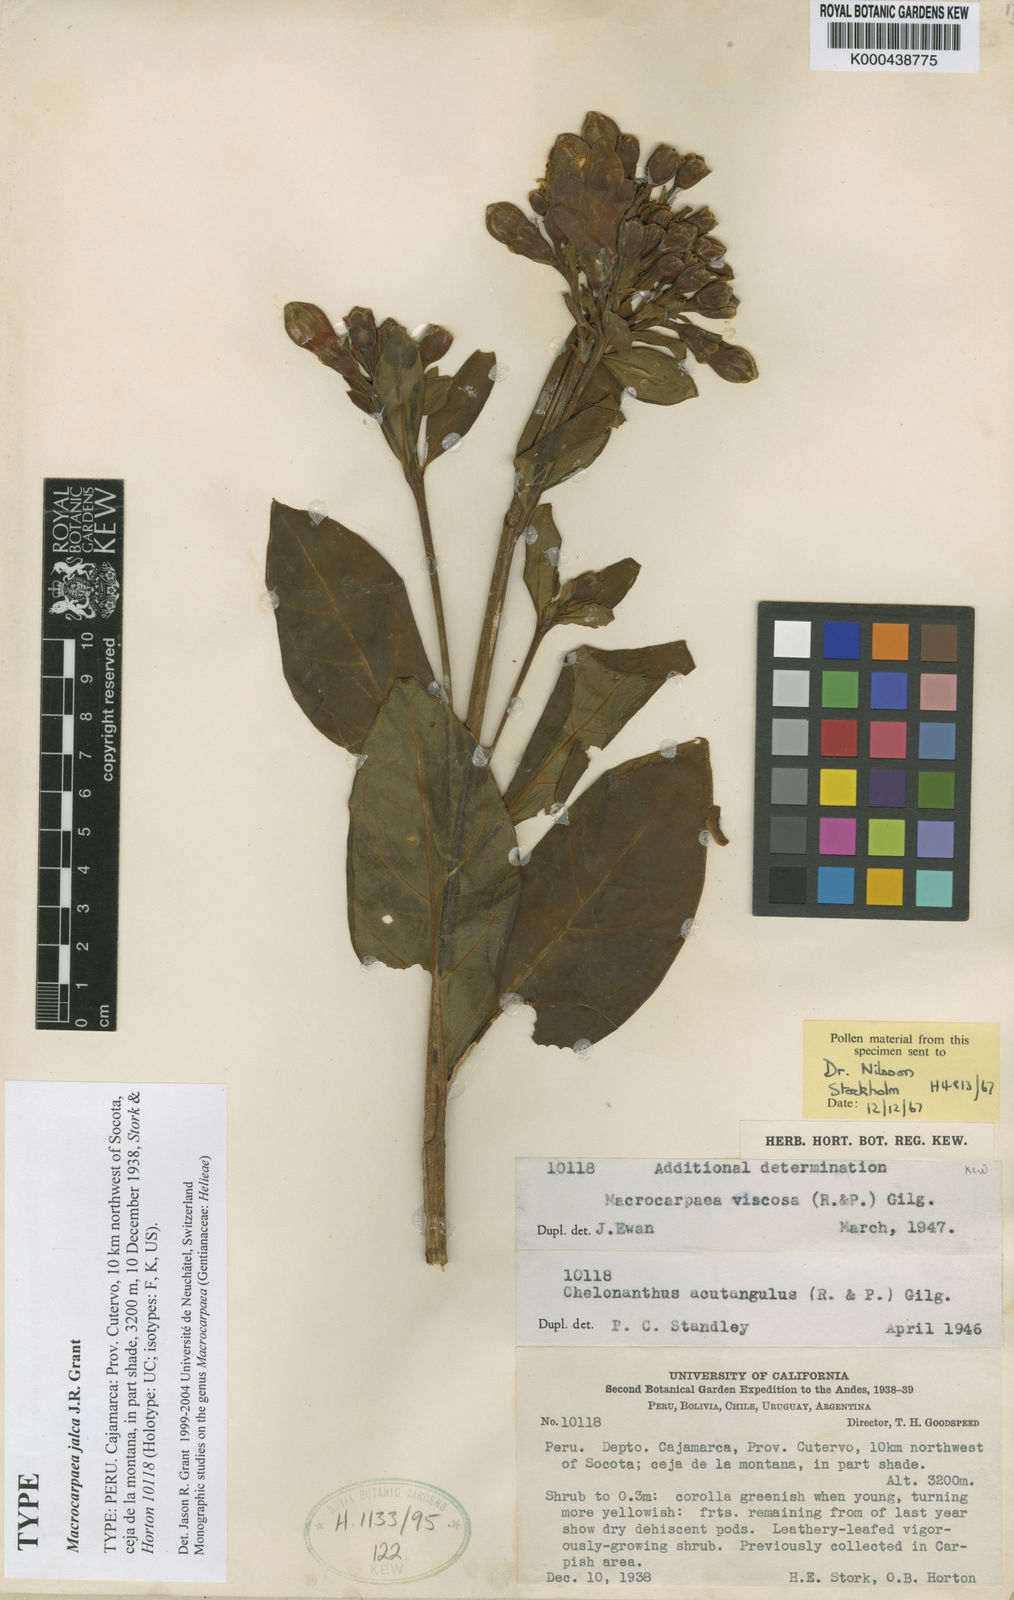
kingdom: Plantae
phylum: Tracheophyta
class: Magnoliopsida
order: Gentianales
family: Gentianaceae
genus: Macrocarpaea
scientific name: Macrocarpaea jalca
